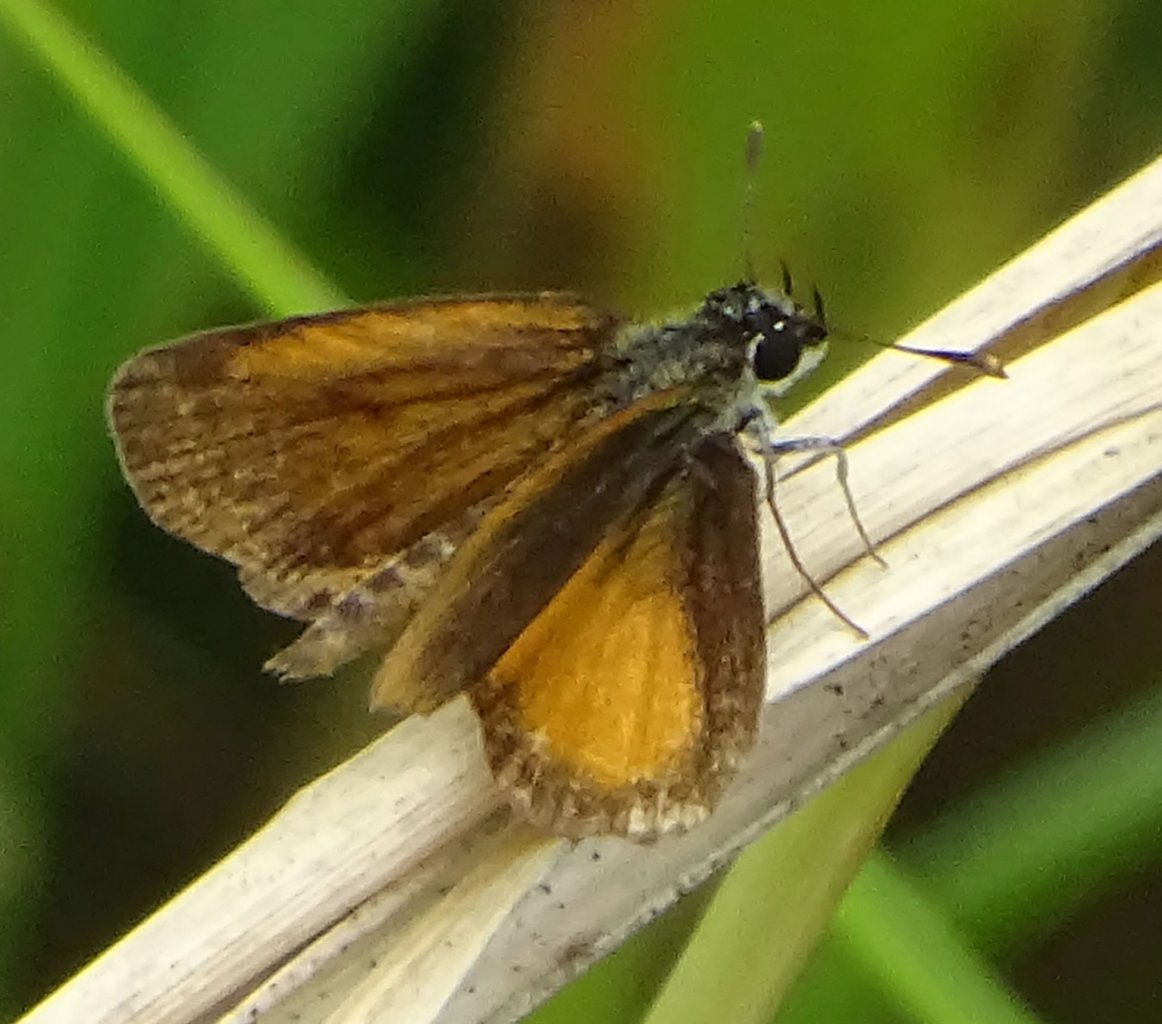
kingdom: Animalia
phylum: Arthropoda
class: Insecta
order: Lepidoptera
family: Hesperiidae
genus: Ancyloxypha
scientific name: Ancyloxypha numitor
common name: Least Skipper
